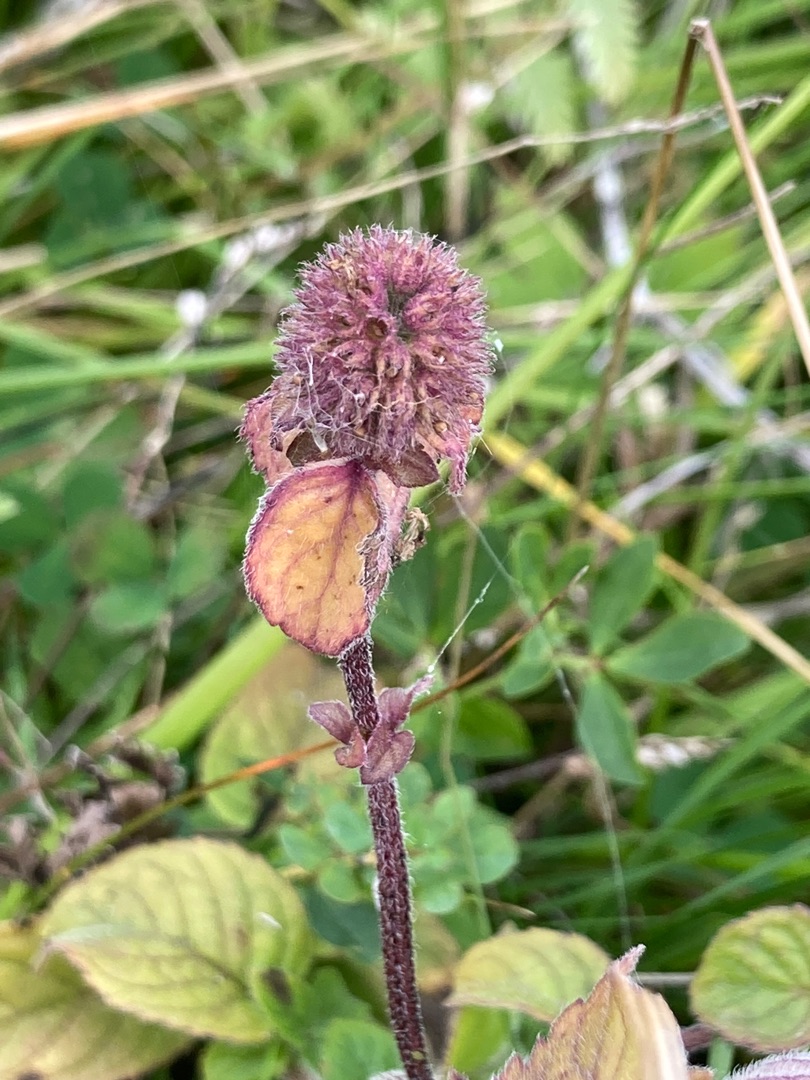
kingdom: Plantae
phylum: Tracheophyta
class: Magnoliopsida
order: Lamiales
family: Lamiaceae
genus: Mentha
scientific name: Mentha aquatica
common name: Vand-mynte
